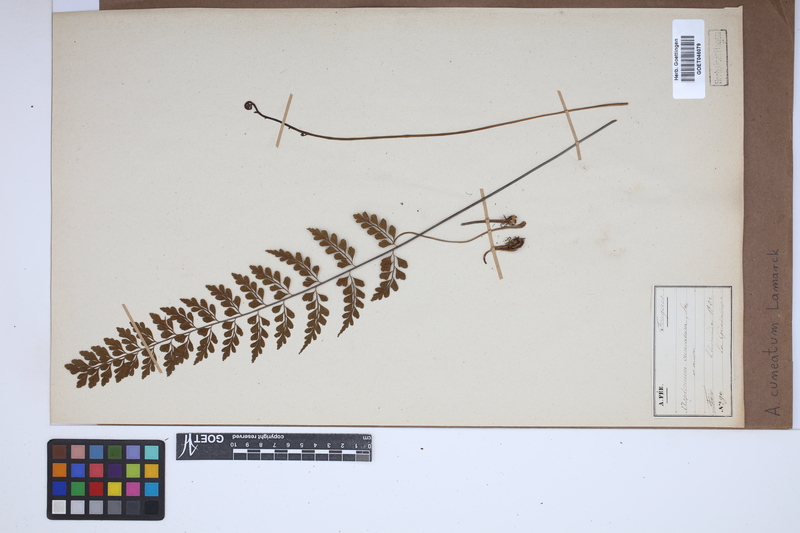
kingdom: Plantae
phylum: Tracheophyta
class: Polypodiopsida
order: Polypodiales
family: Aspleniaceae
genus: Asplenium
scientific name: Asplenium cuneatum
